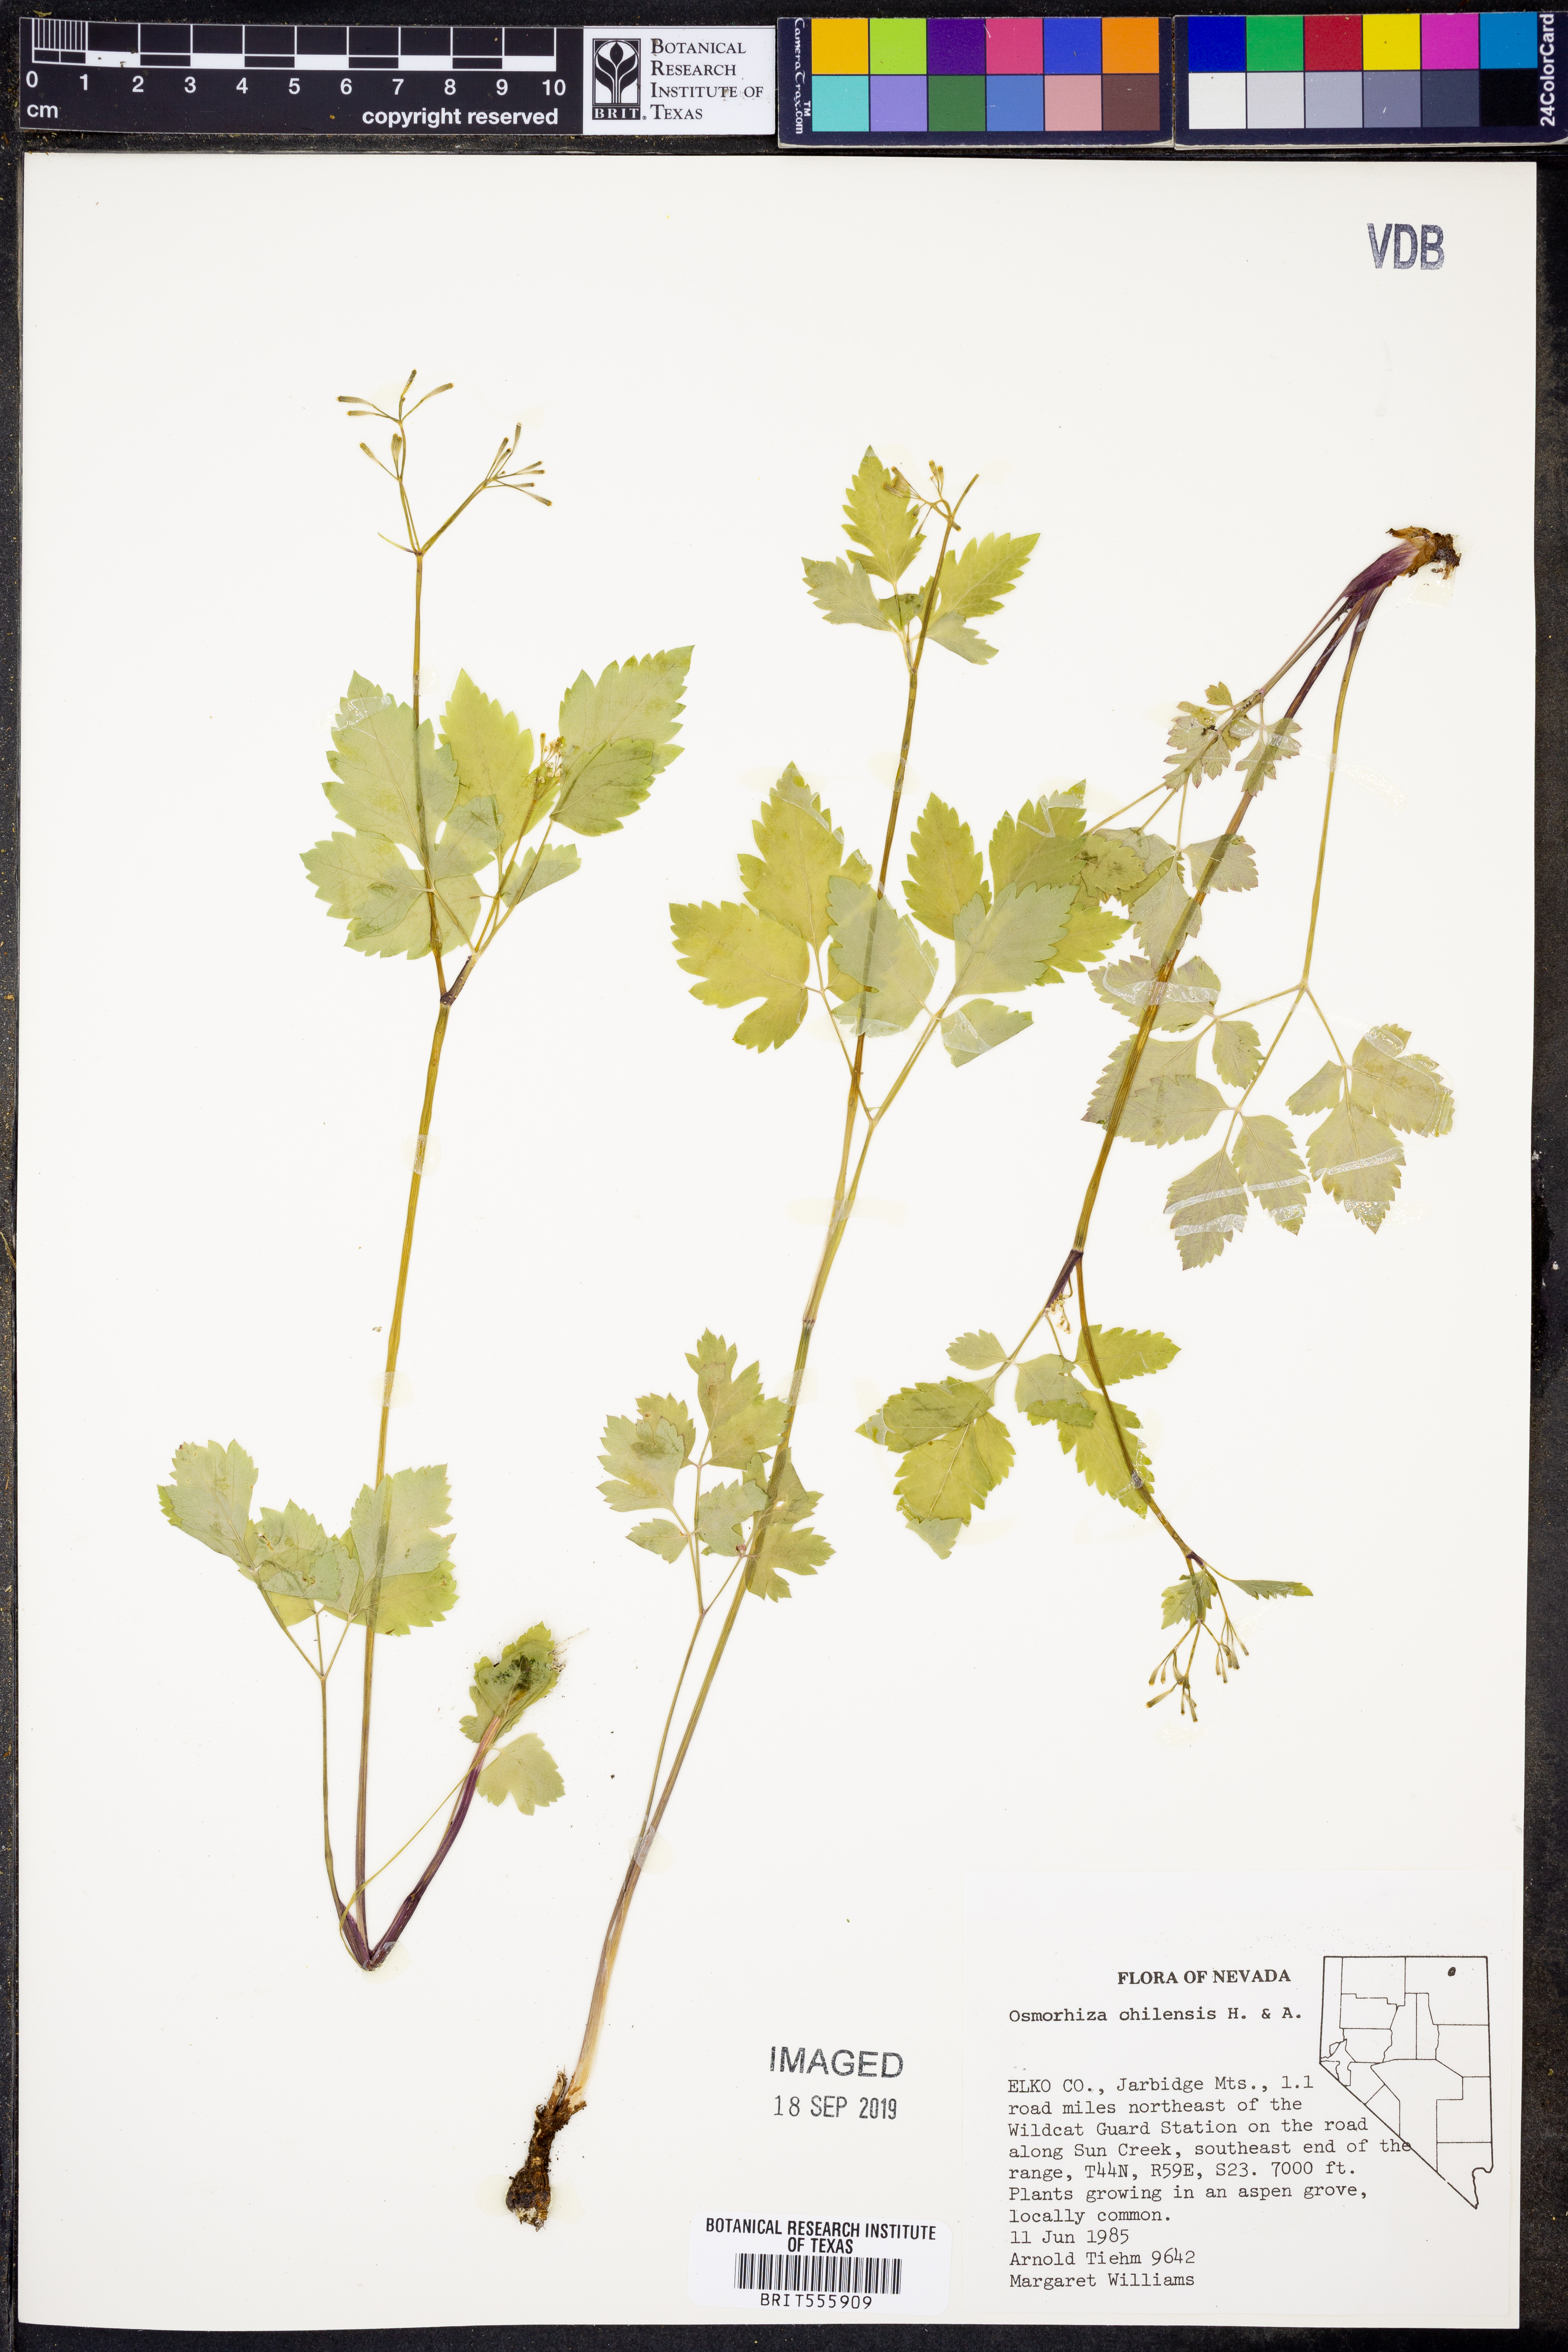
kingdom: Plantae
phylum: Tracheophyta
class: Magnoliopsida
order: Apiales
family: Apiaceae
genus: Osmorhiza
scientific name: Osmorhiza berteroi
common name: Mountain sweet cicely
